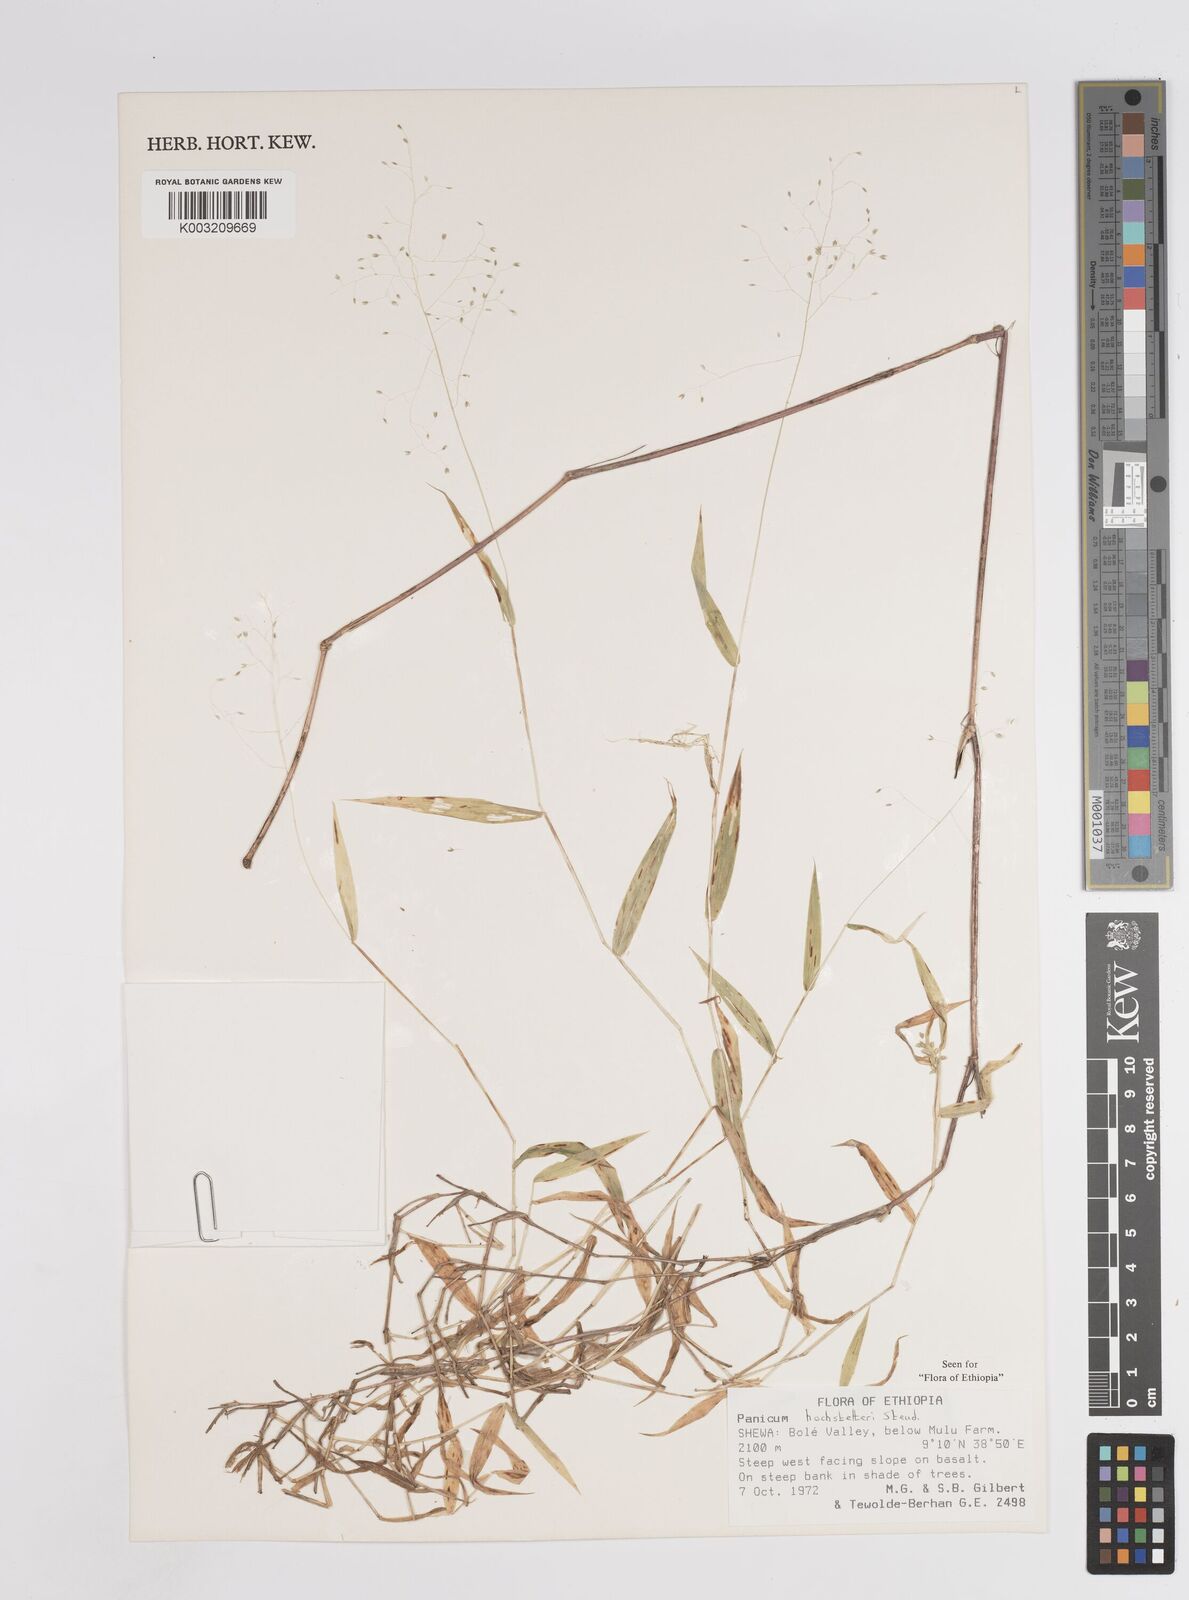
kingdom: Plantae
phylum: Tracheophyta
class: Liliopsida
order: Poales
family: Poaceae
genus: Panicum
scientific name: Panicum hochstetteri
